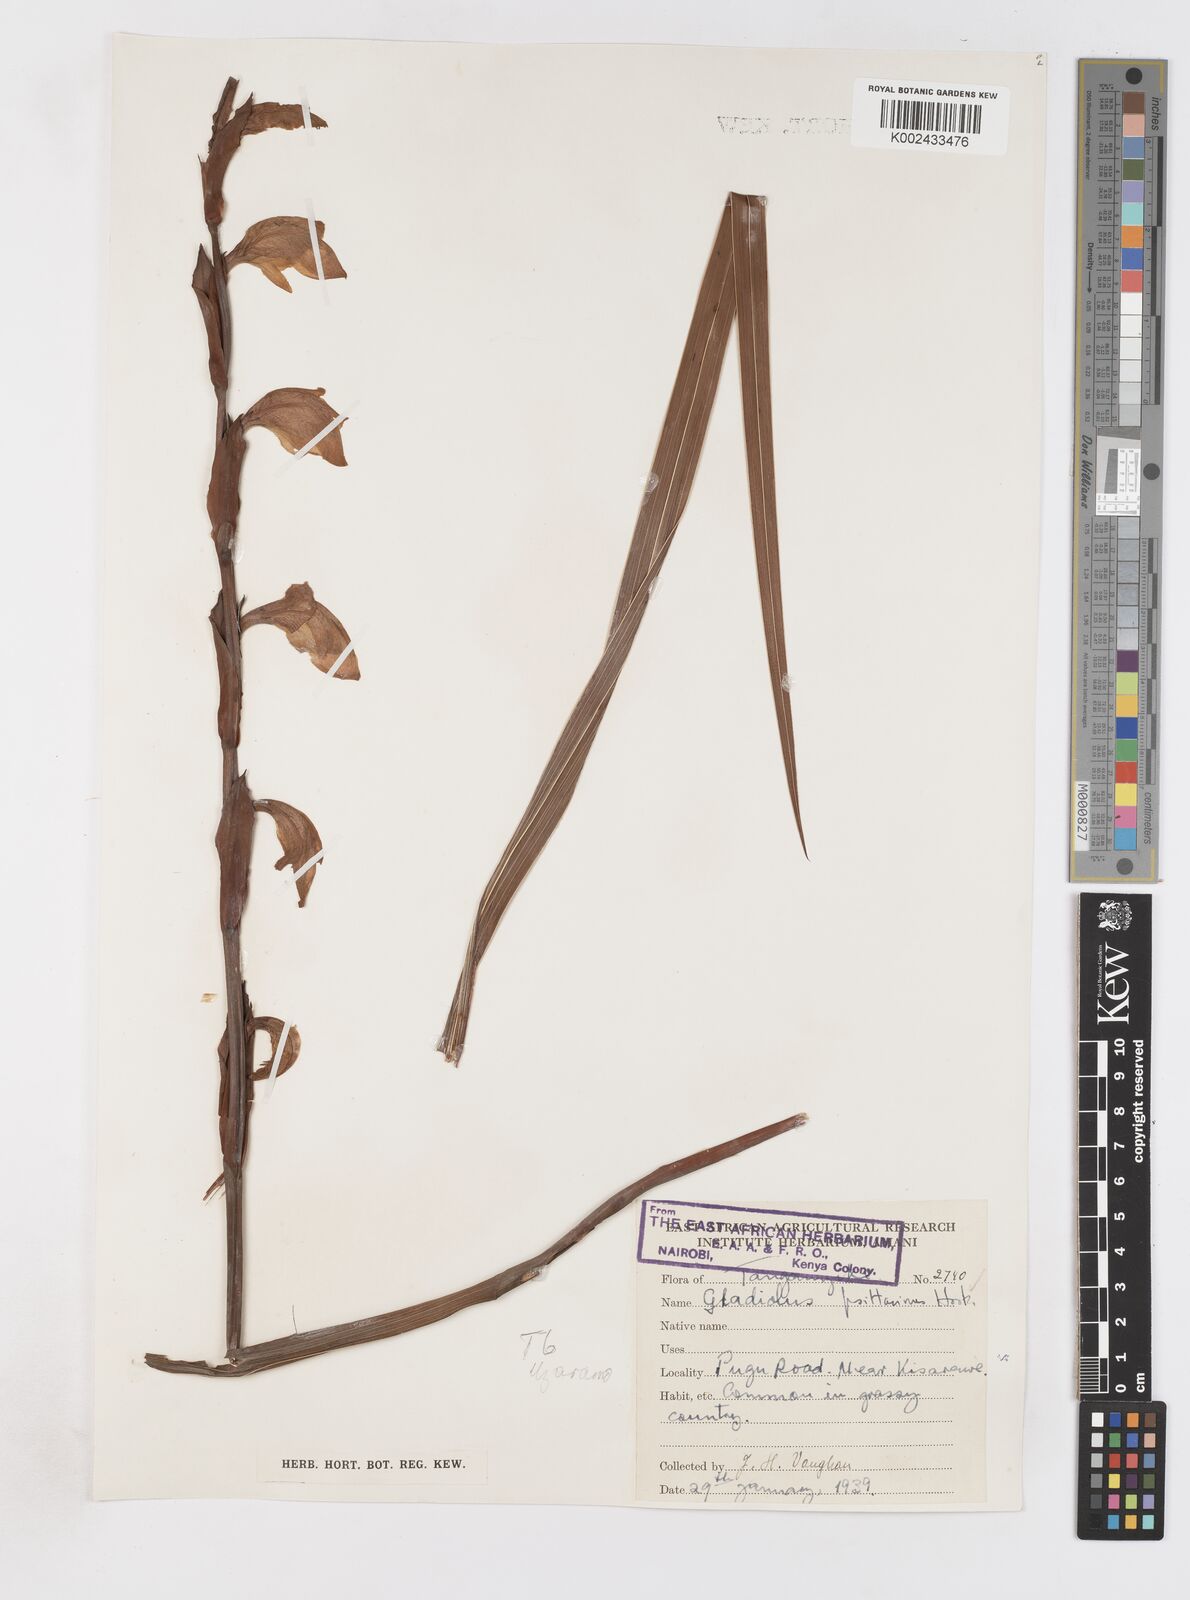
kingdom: Plantae
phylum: Tracheophyta
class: Liliopsida
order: Asparagales
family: Iridaceae
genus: Gladiolus
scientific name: Gladiolus dalenii
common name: Cornflag
